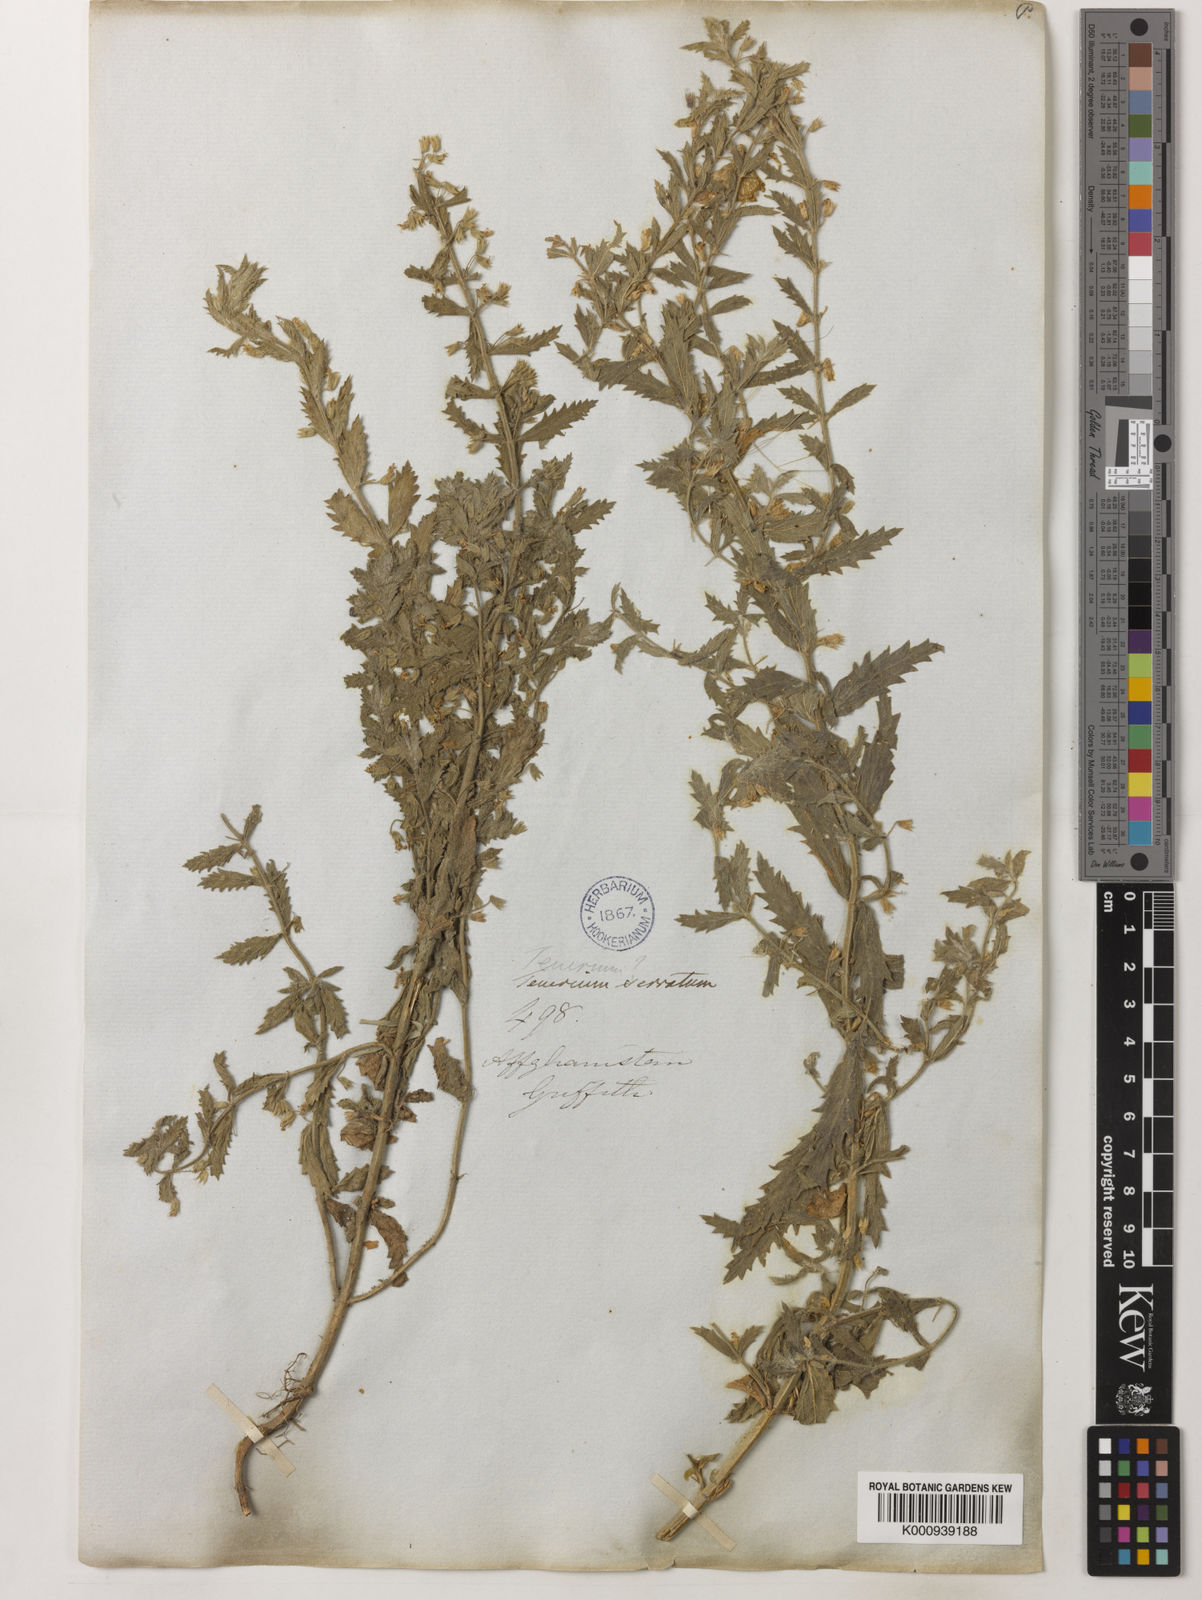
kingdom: Plantae
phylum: Tracheophyta
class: Magnoliopsida
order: Lamiales
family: Lamiaceae
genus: Teucrium
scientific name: Teucrium scordium
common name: Water germander
